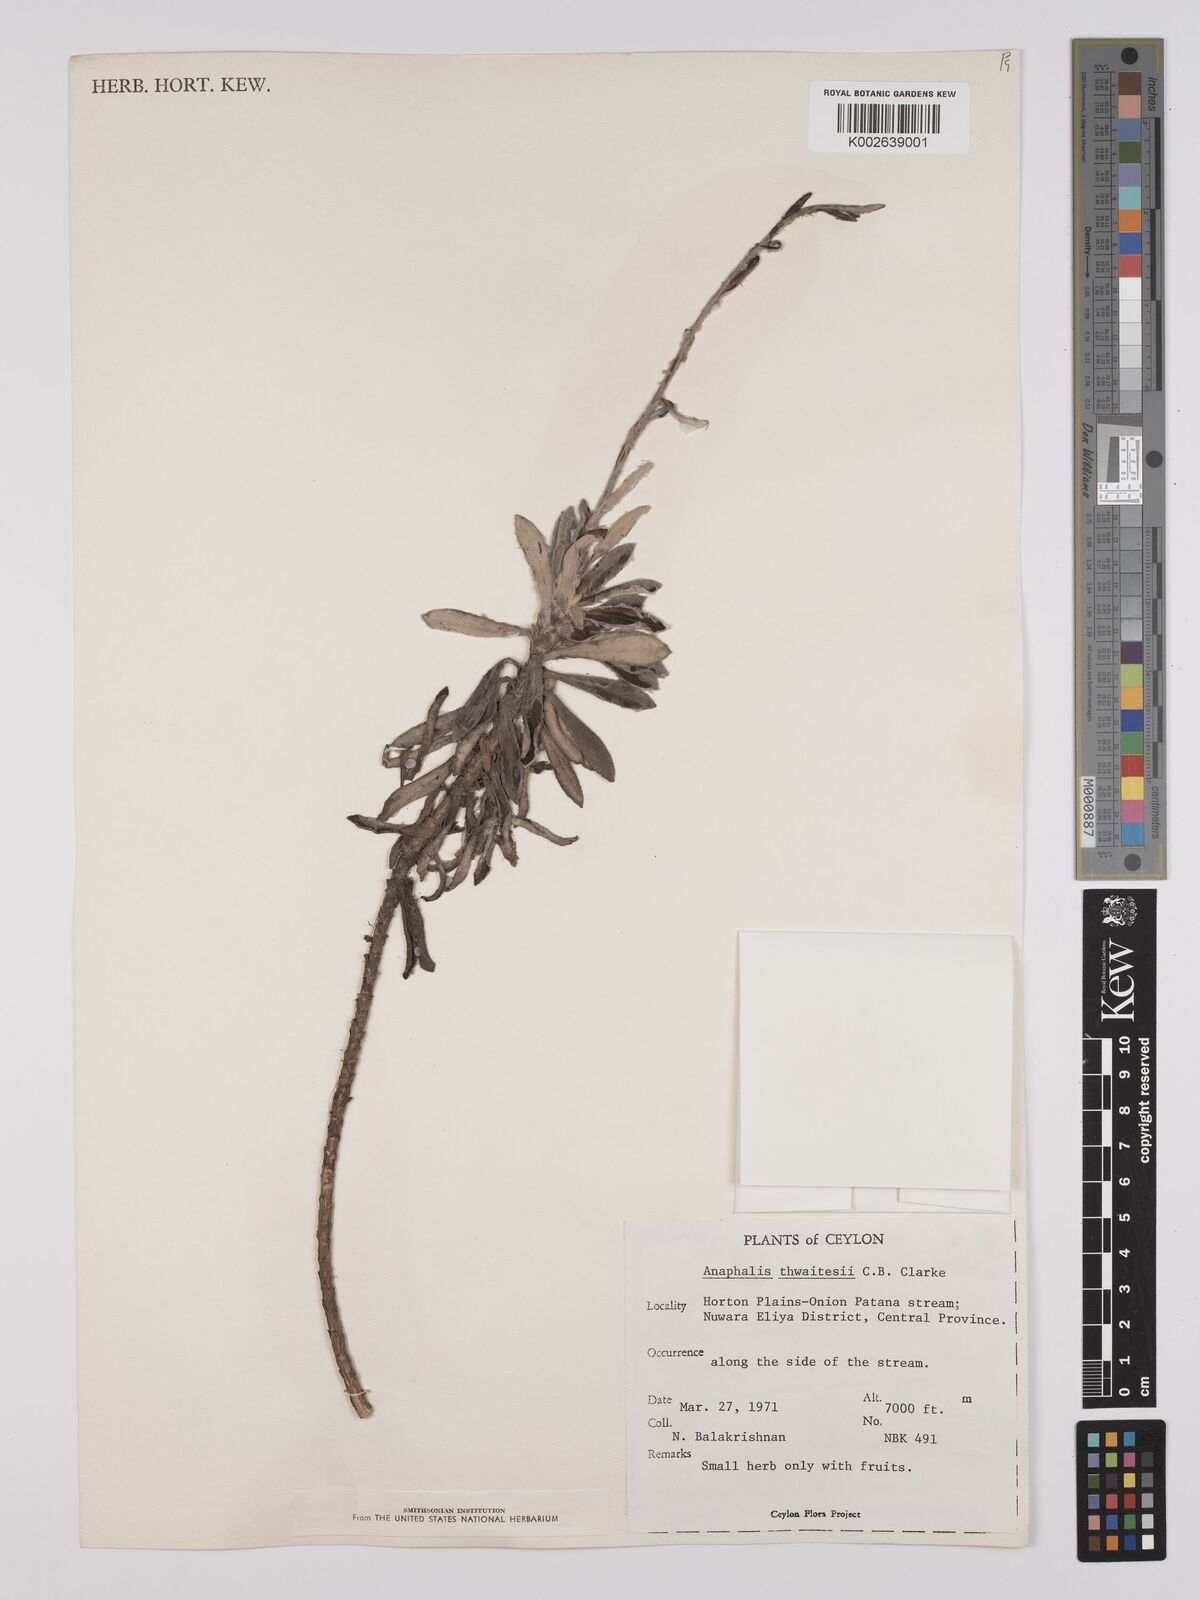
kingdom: Plantae
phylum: Tracheophyta
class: Magnoliopsida
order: Asterales
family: Asteraceae
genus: Anaphalis
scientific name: Anaphalis thwaitesii
